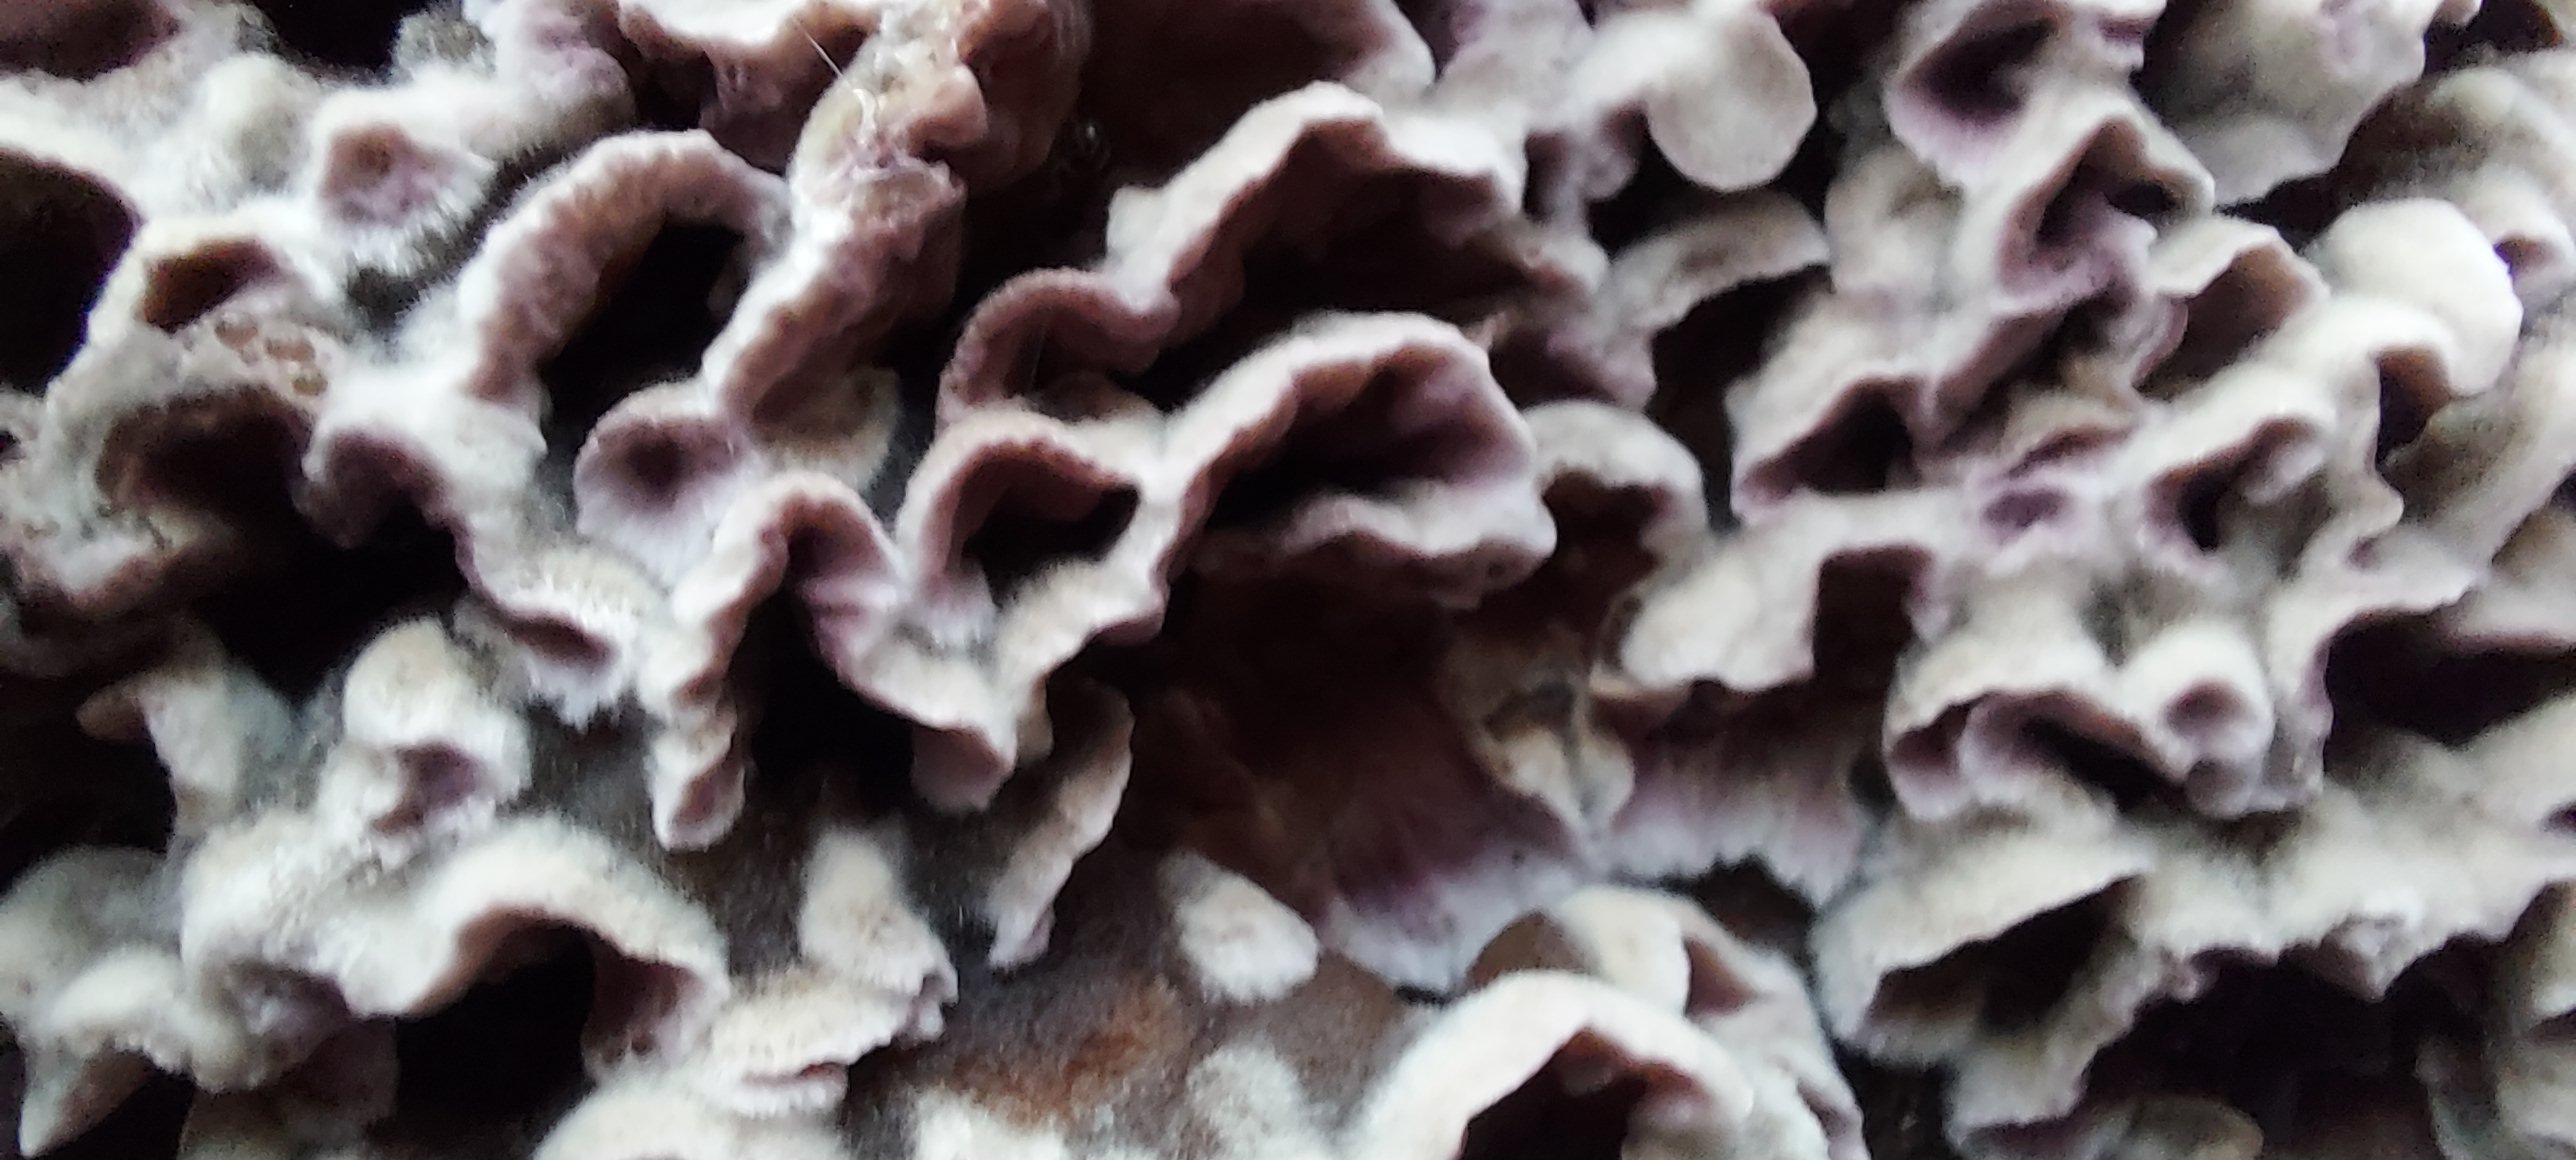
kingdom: Fungi
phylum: Basidiomycota
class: Agaricomycetes
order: Agaricales
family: Cyphellaceae
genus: Chondrostereum
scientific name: Chondrostereum purpureum
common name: purpurlædersvamp
